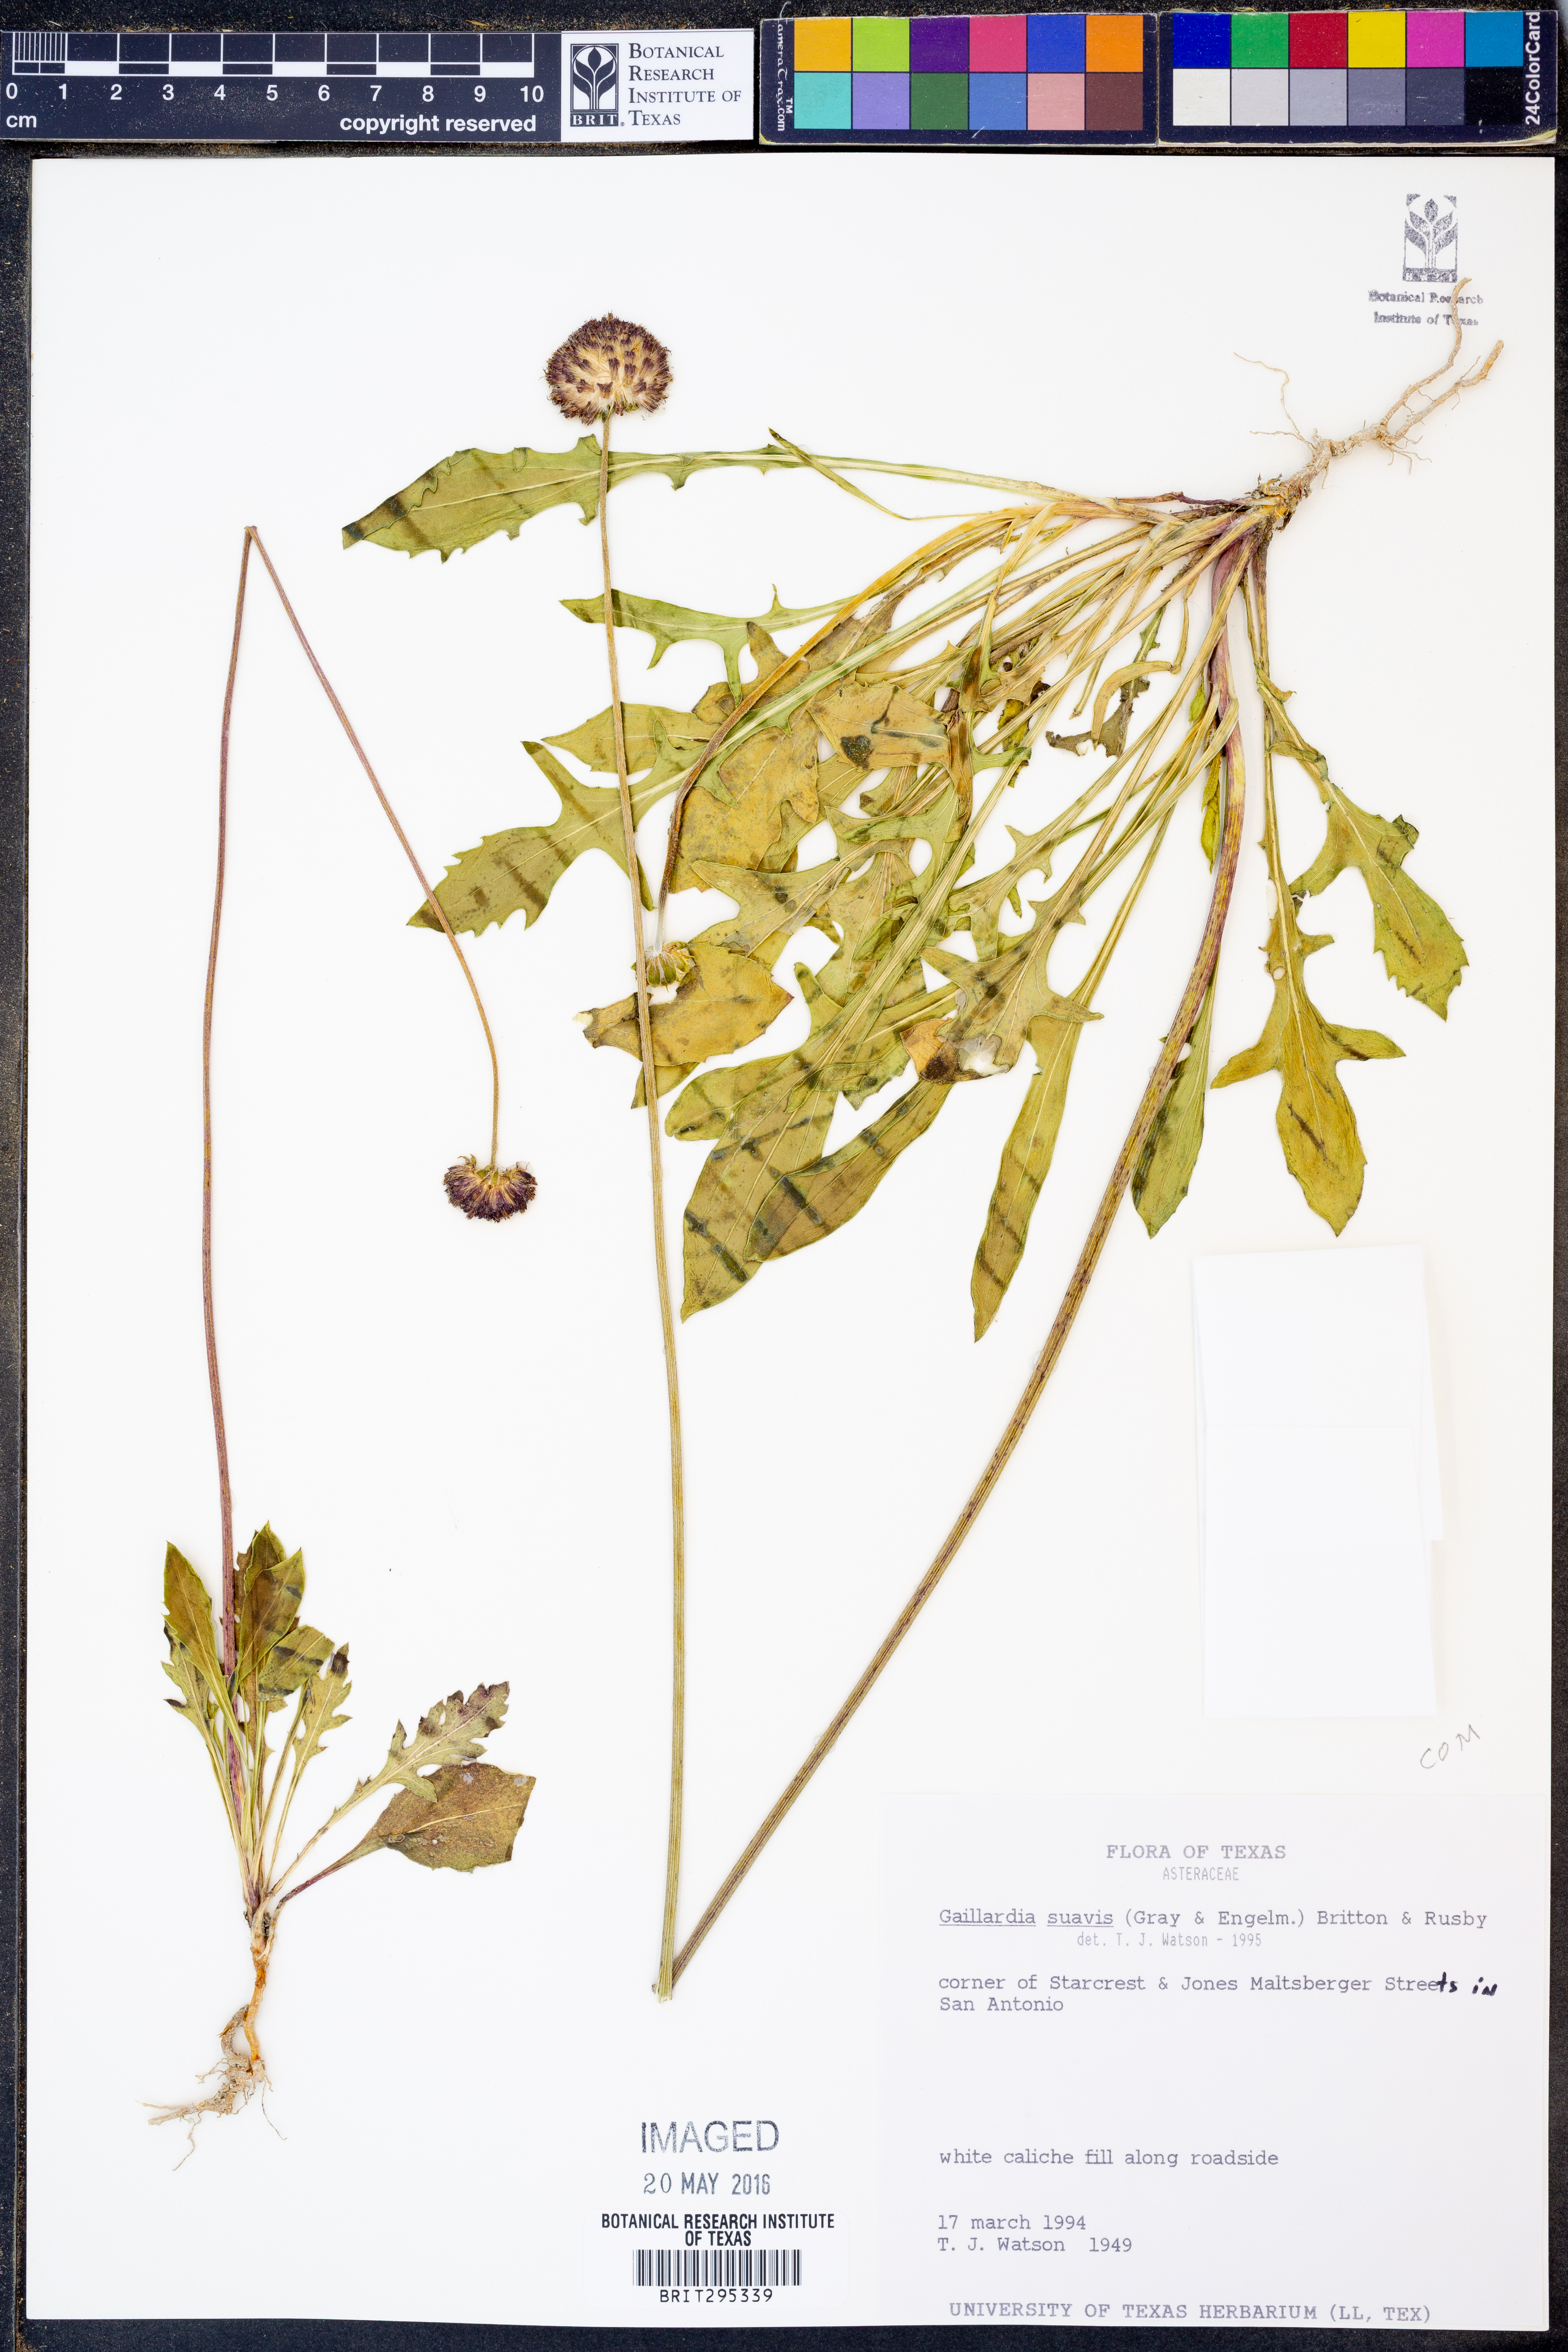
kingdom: Plantae
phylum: Tracheophyta
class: Magnoliopsida
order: Asterales
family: Asteraceae
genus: Gaillardia
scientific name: Gaillardia suavis
